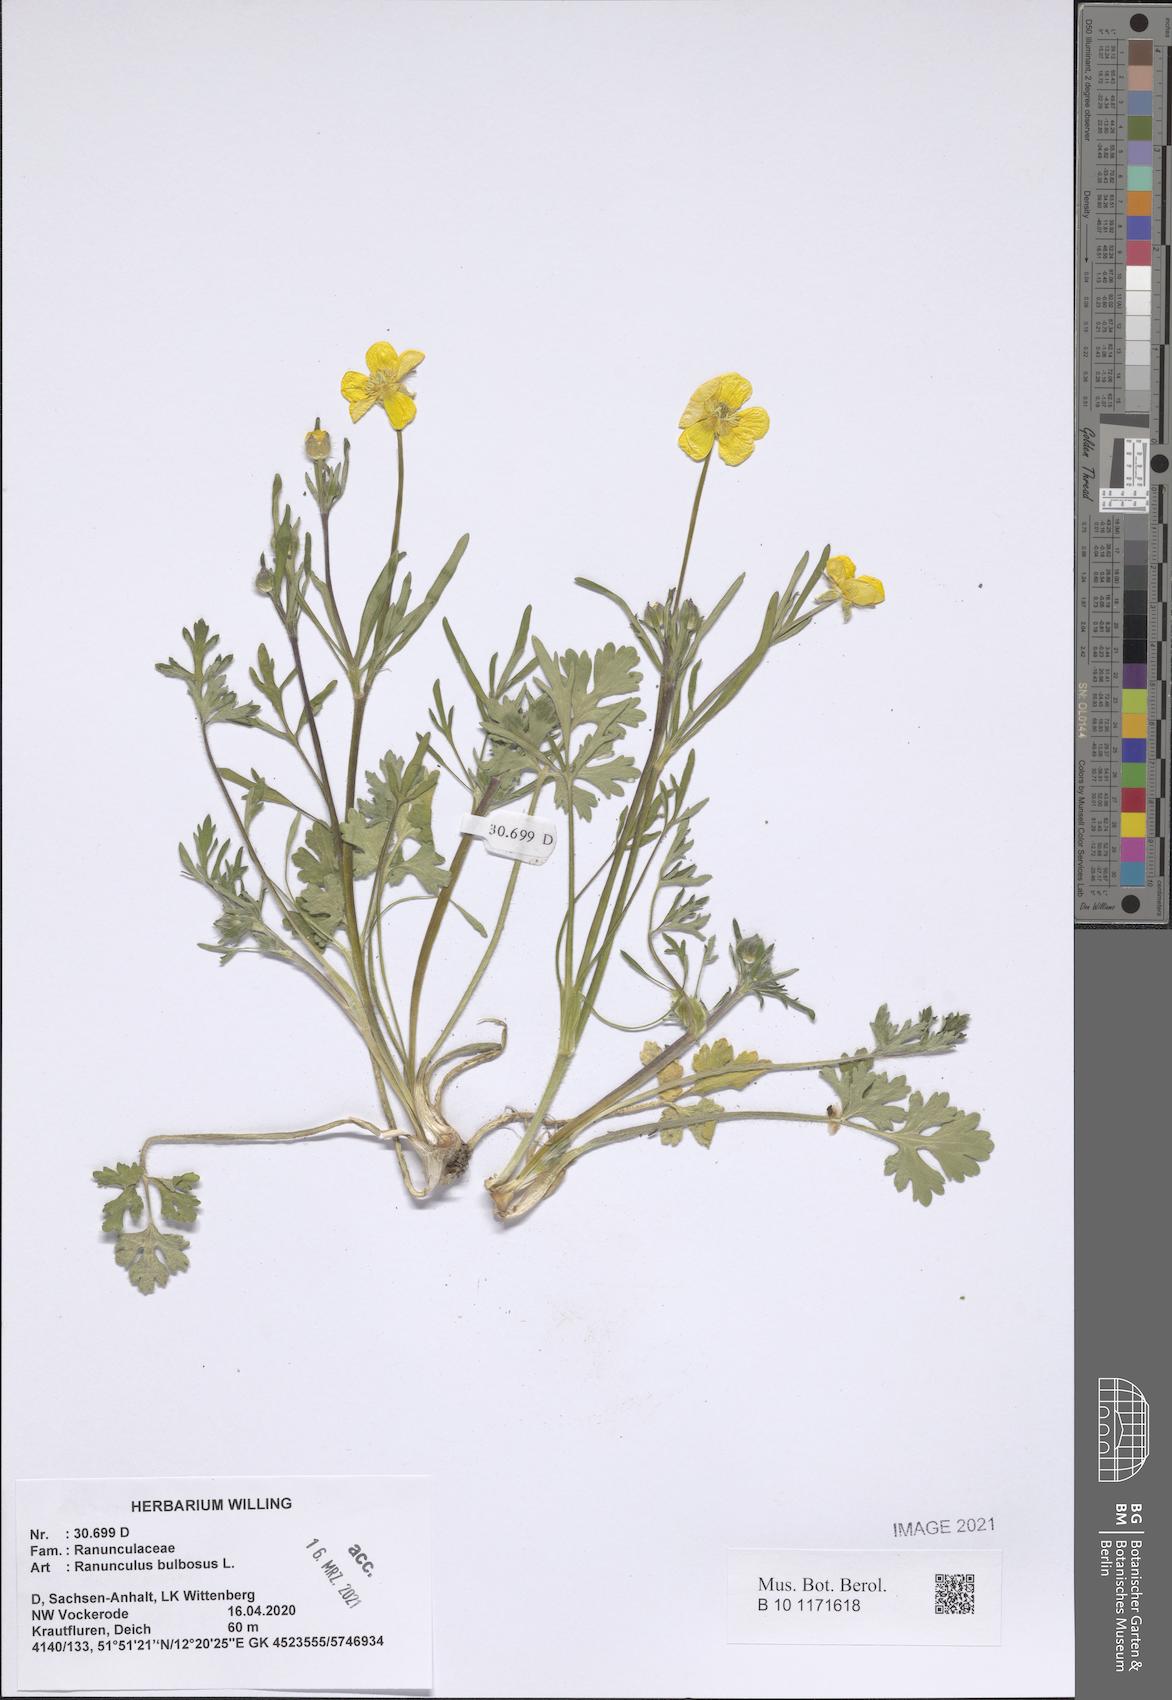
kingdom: Plantae
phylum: Tracheophyta
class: Magnoliopsida
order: Ranunculales
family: Ranunculaceae
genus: Ranunculus
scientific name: Ranunculus bulbosus
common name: Bulbous buttercup
